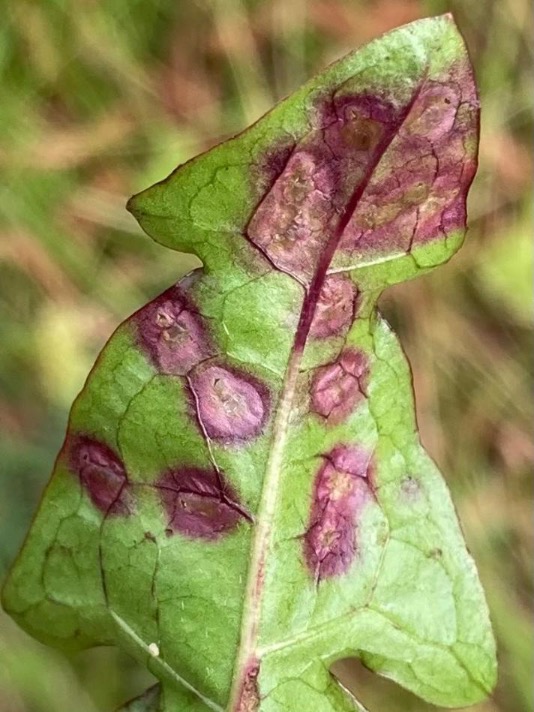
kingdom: Animalia
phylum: Arthropoda
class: Insecta
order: Diptera
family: Cecidomyiidae
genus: Cystiphora
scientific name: Cystiphora taraxaci
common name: Mælkebøttegalmyg
